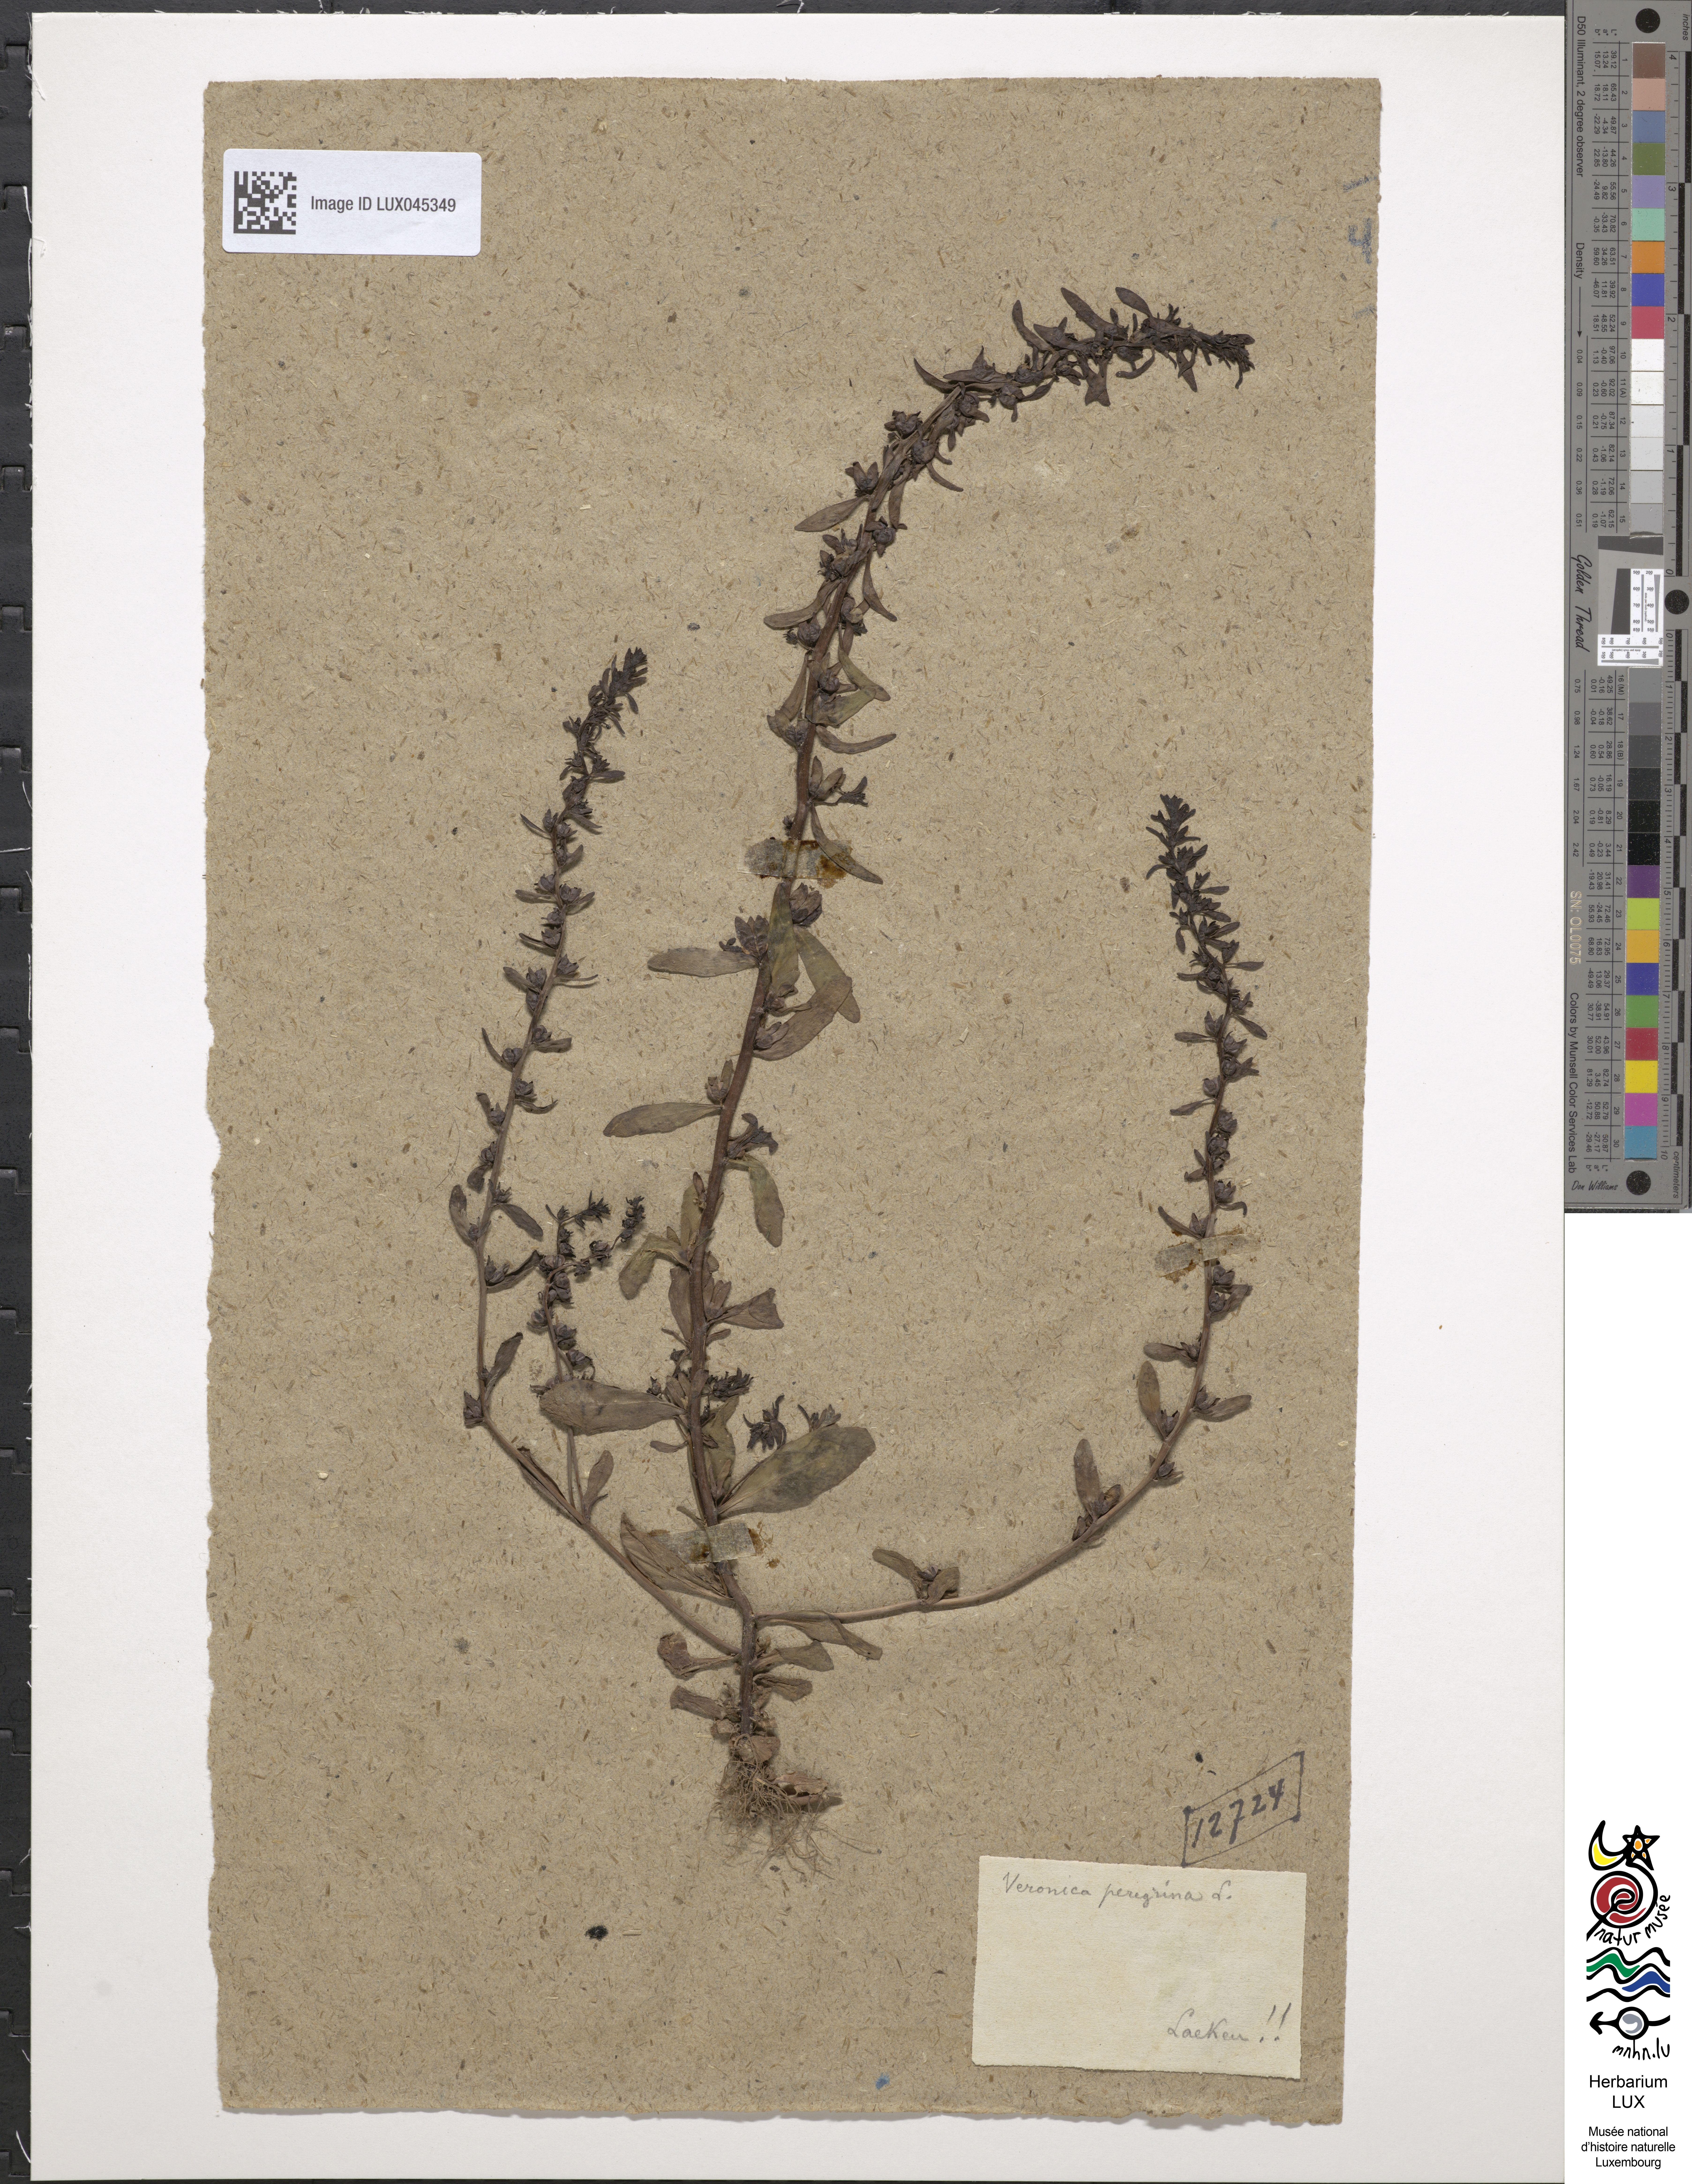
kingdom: Plantae
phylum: Tracheophyta
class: Magnoliopsida
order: Lamiales
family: Plantaginaceae
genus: Veronica
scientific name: Veronica peregrina
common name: Neckweed
